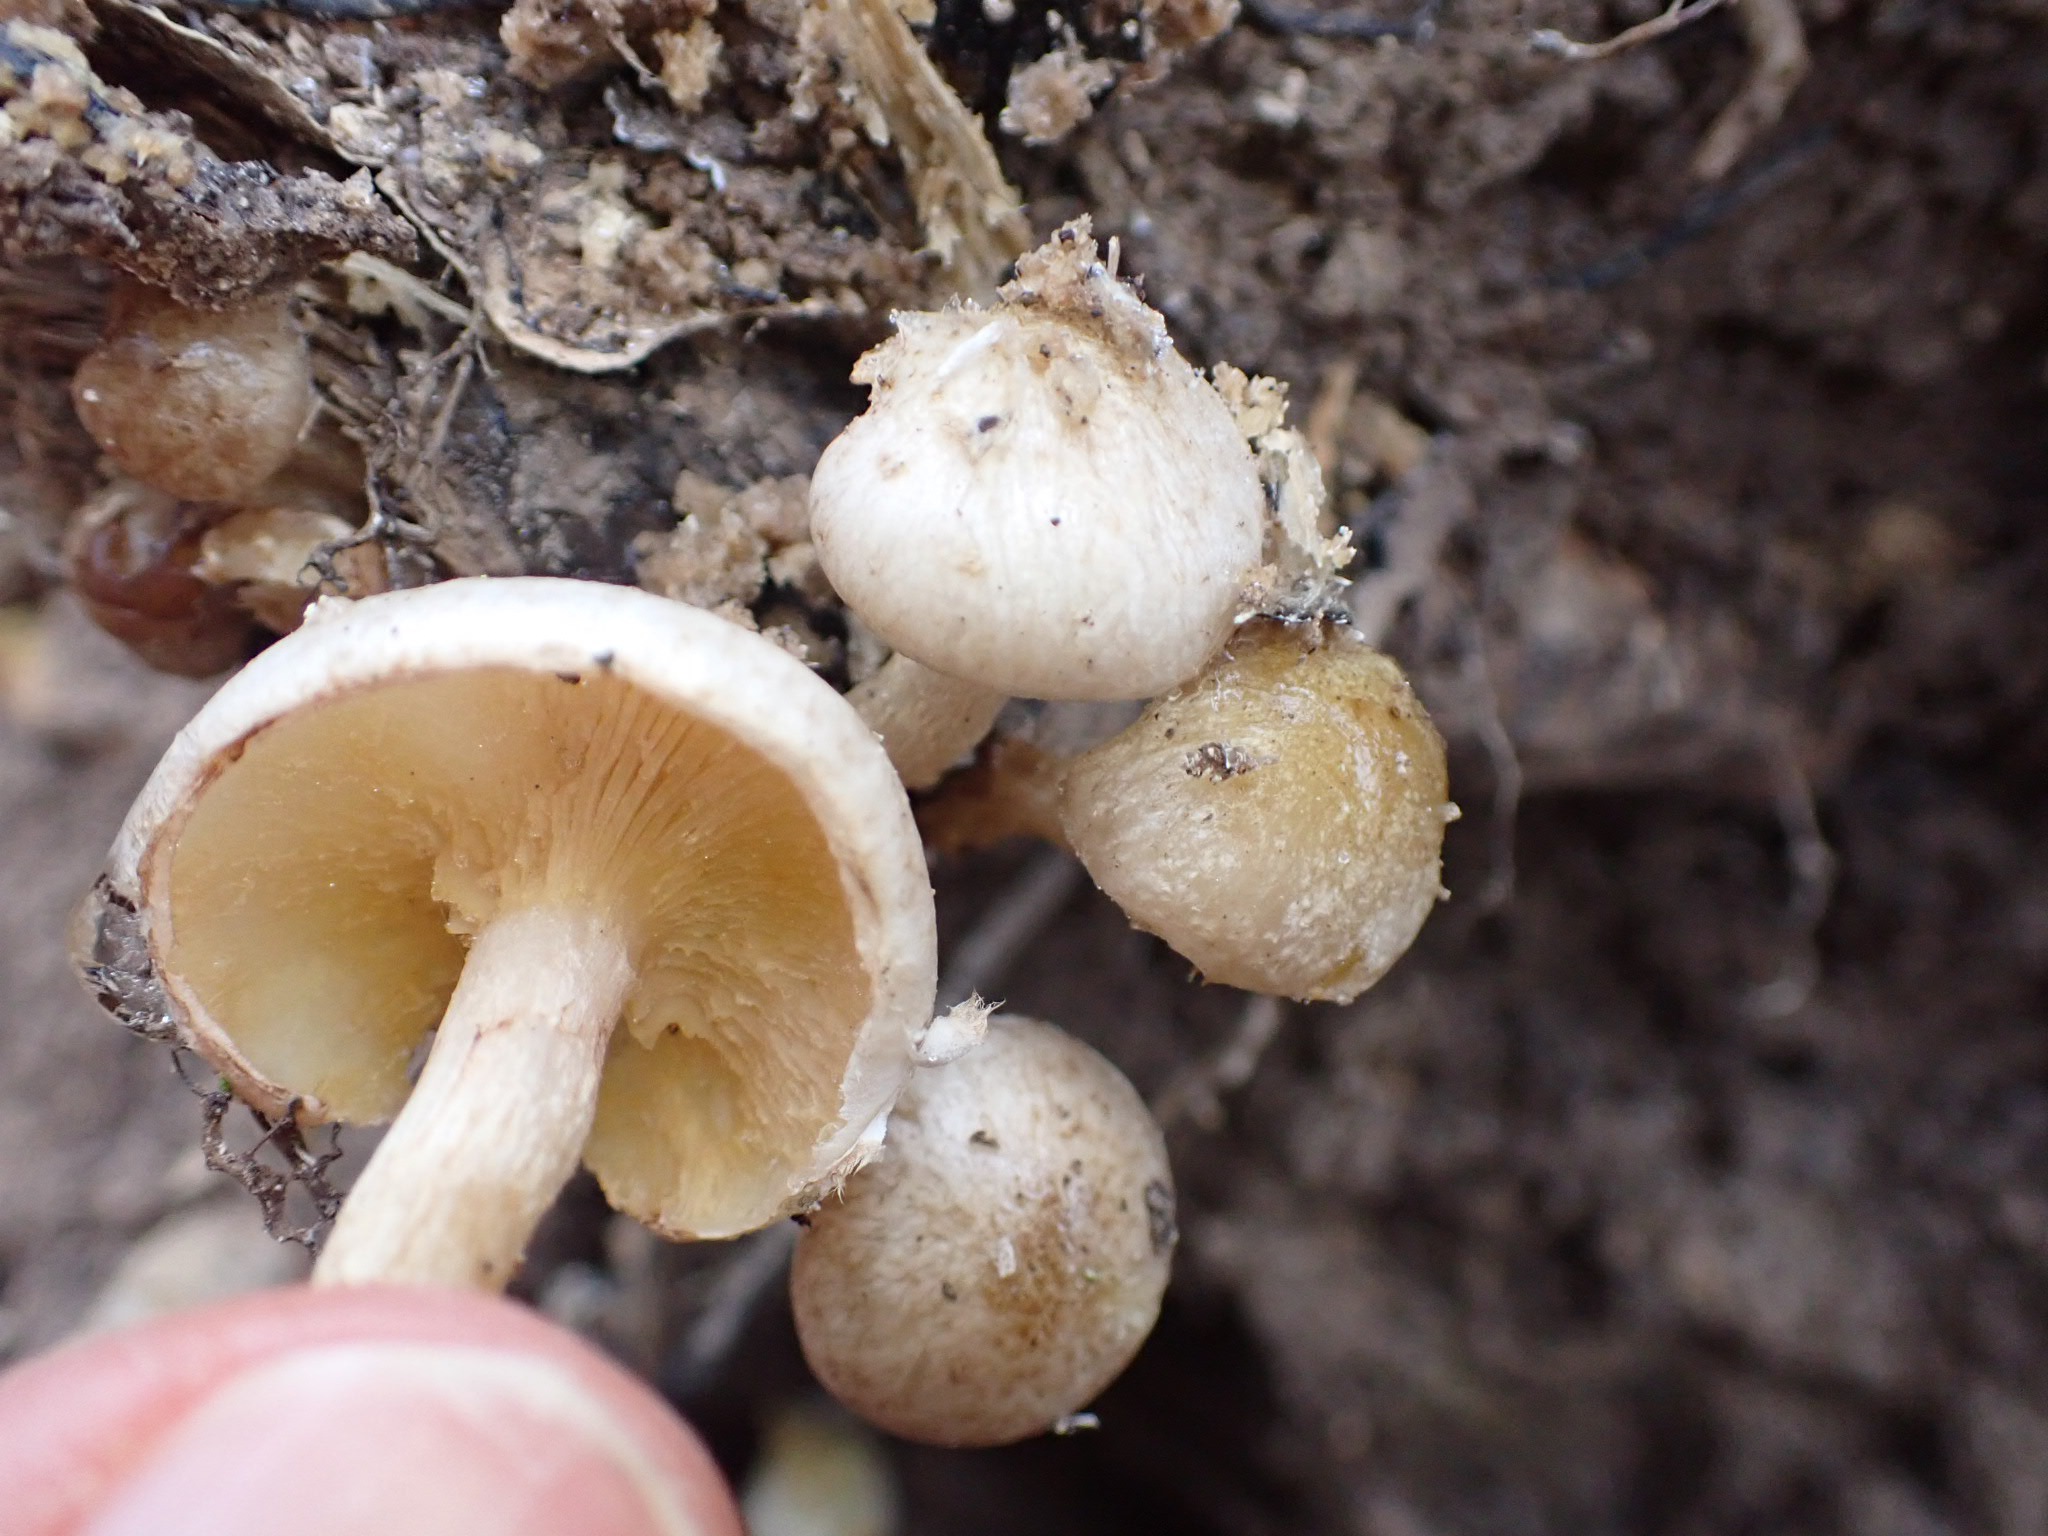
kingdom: Fungi
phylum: Basidiomycota
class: Agaricomycetes
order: Agaricales
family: Strophariaceae
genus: Pholiota
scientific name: Pholiota gummosa
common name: grøngul skælhat
